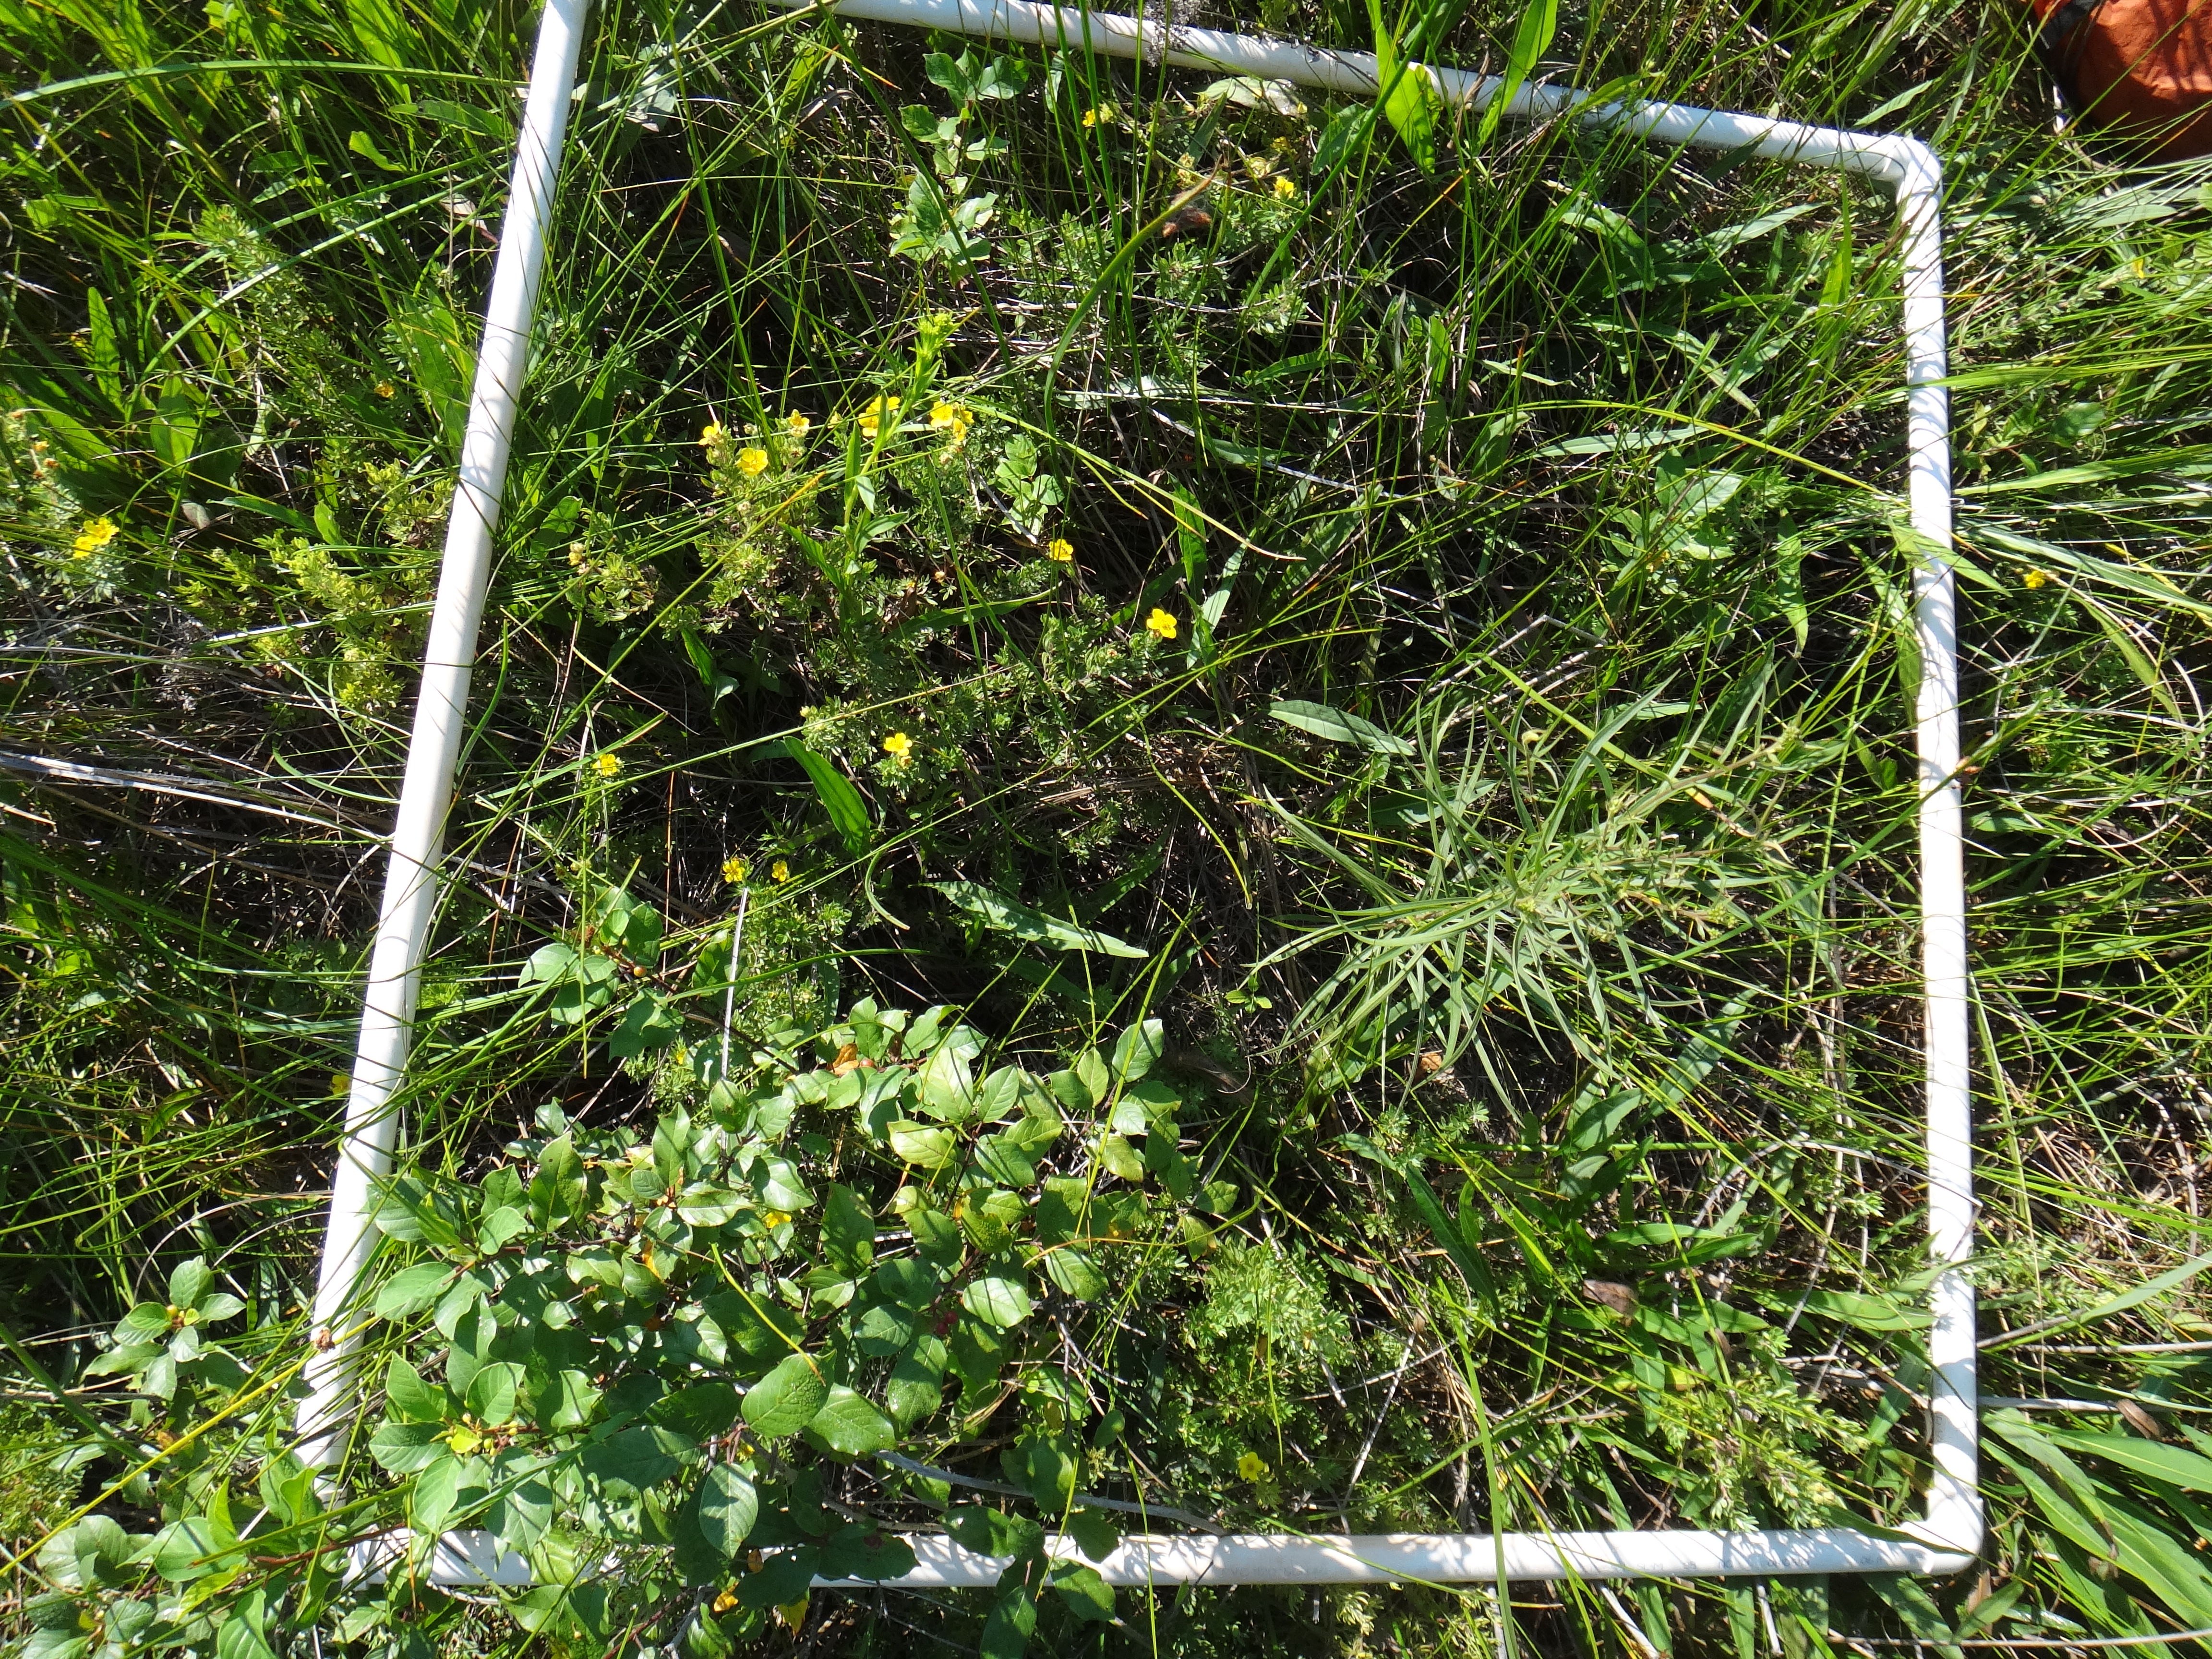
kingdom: Plantae
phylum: Tracheophyta
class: Liliopsida
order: Poales
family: Poaceae
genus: Dichanthelium
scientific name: Dichanthelium implicatum
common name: Slender-stemmed panicgrass
